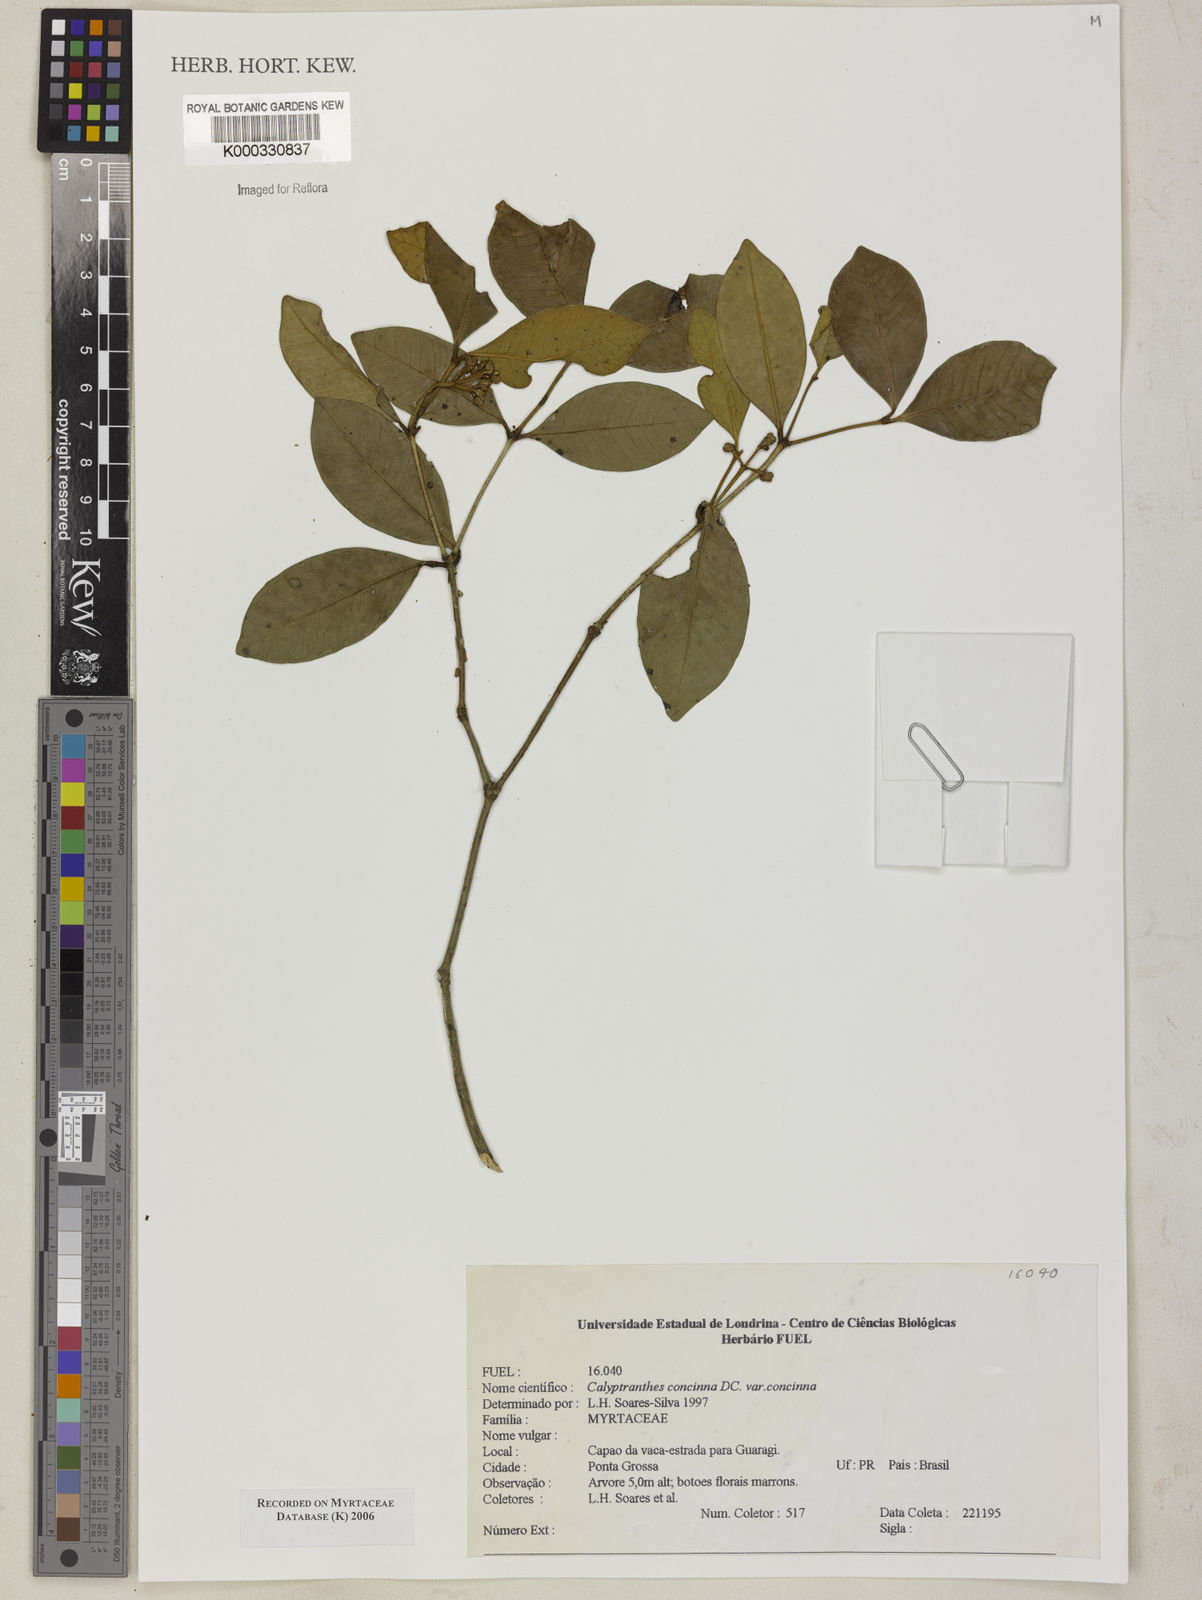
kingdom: Plantae
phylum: Tracheophyta
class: Magnoliopsida
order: Myrtales
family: Myrtaceae
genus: Myrcia
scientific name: Myrcia cruciflora
